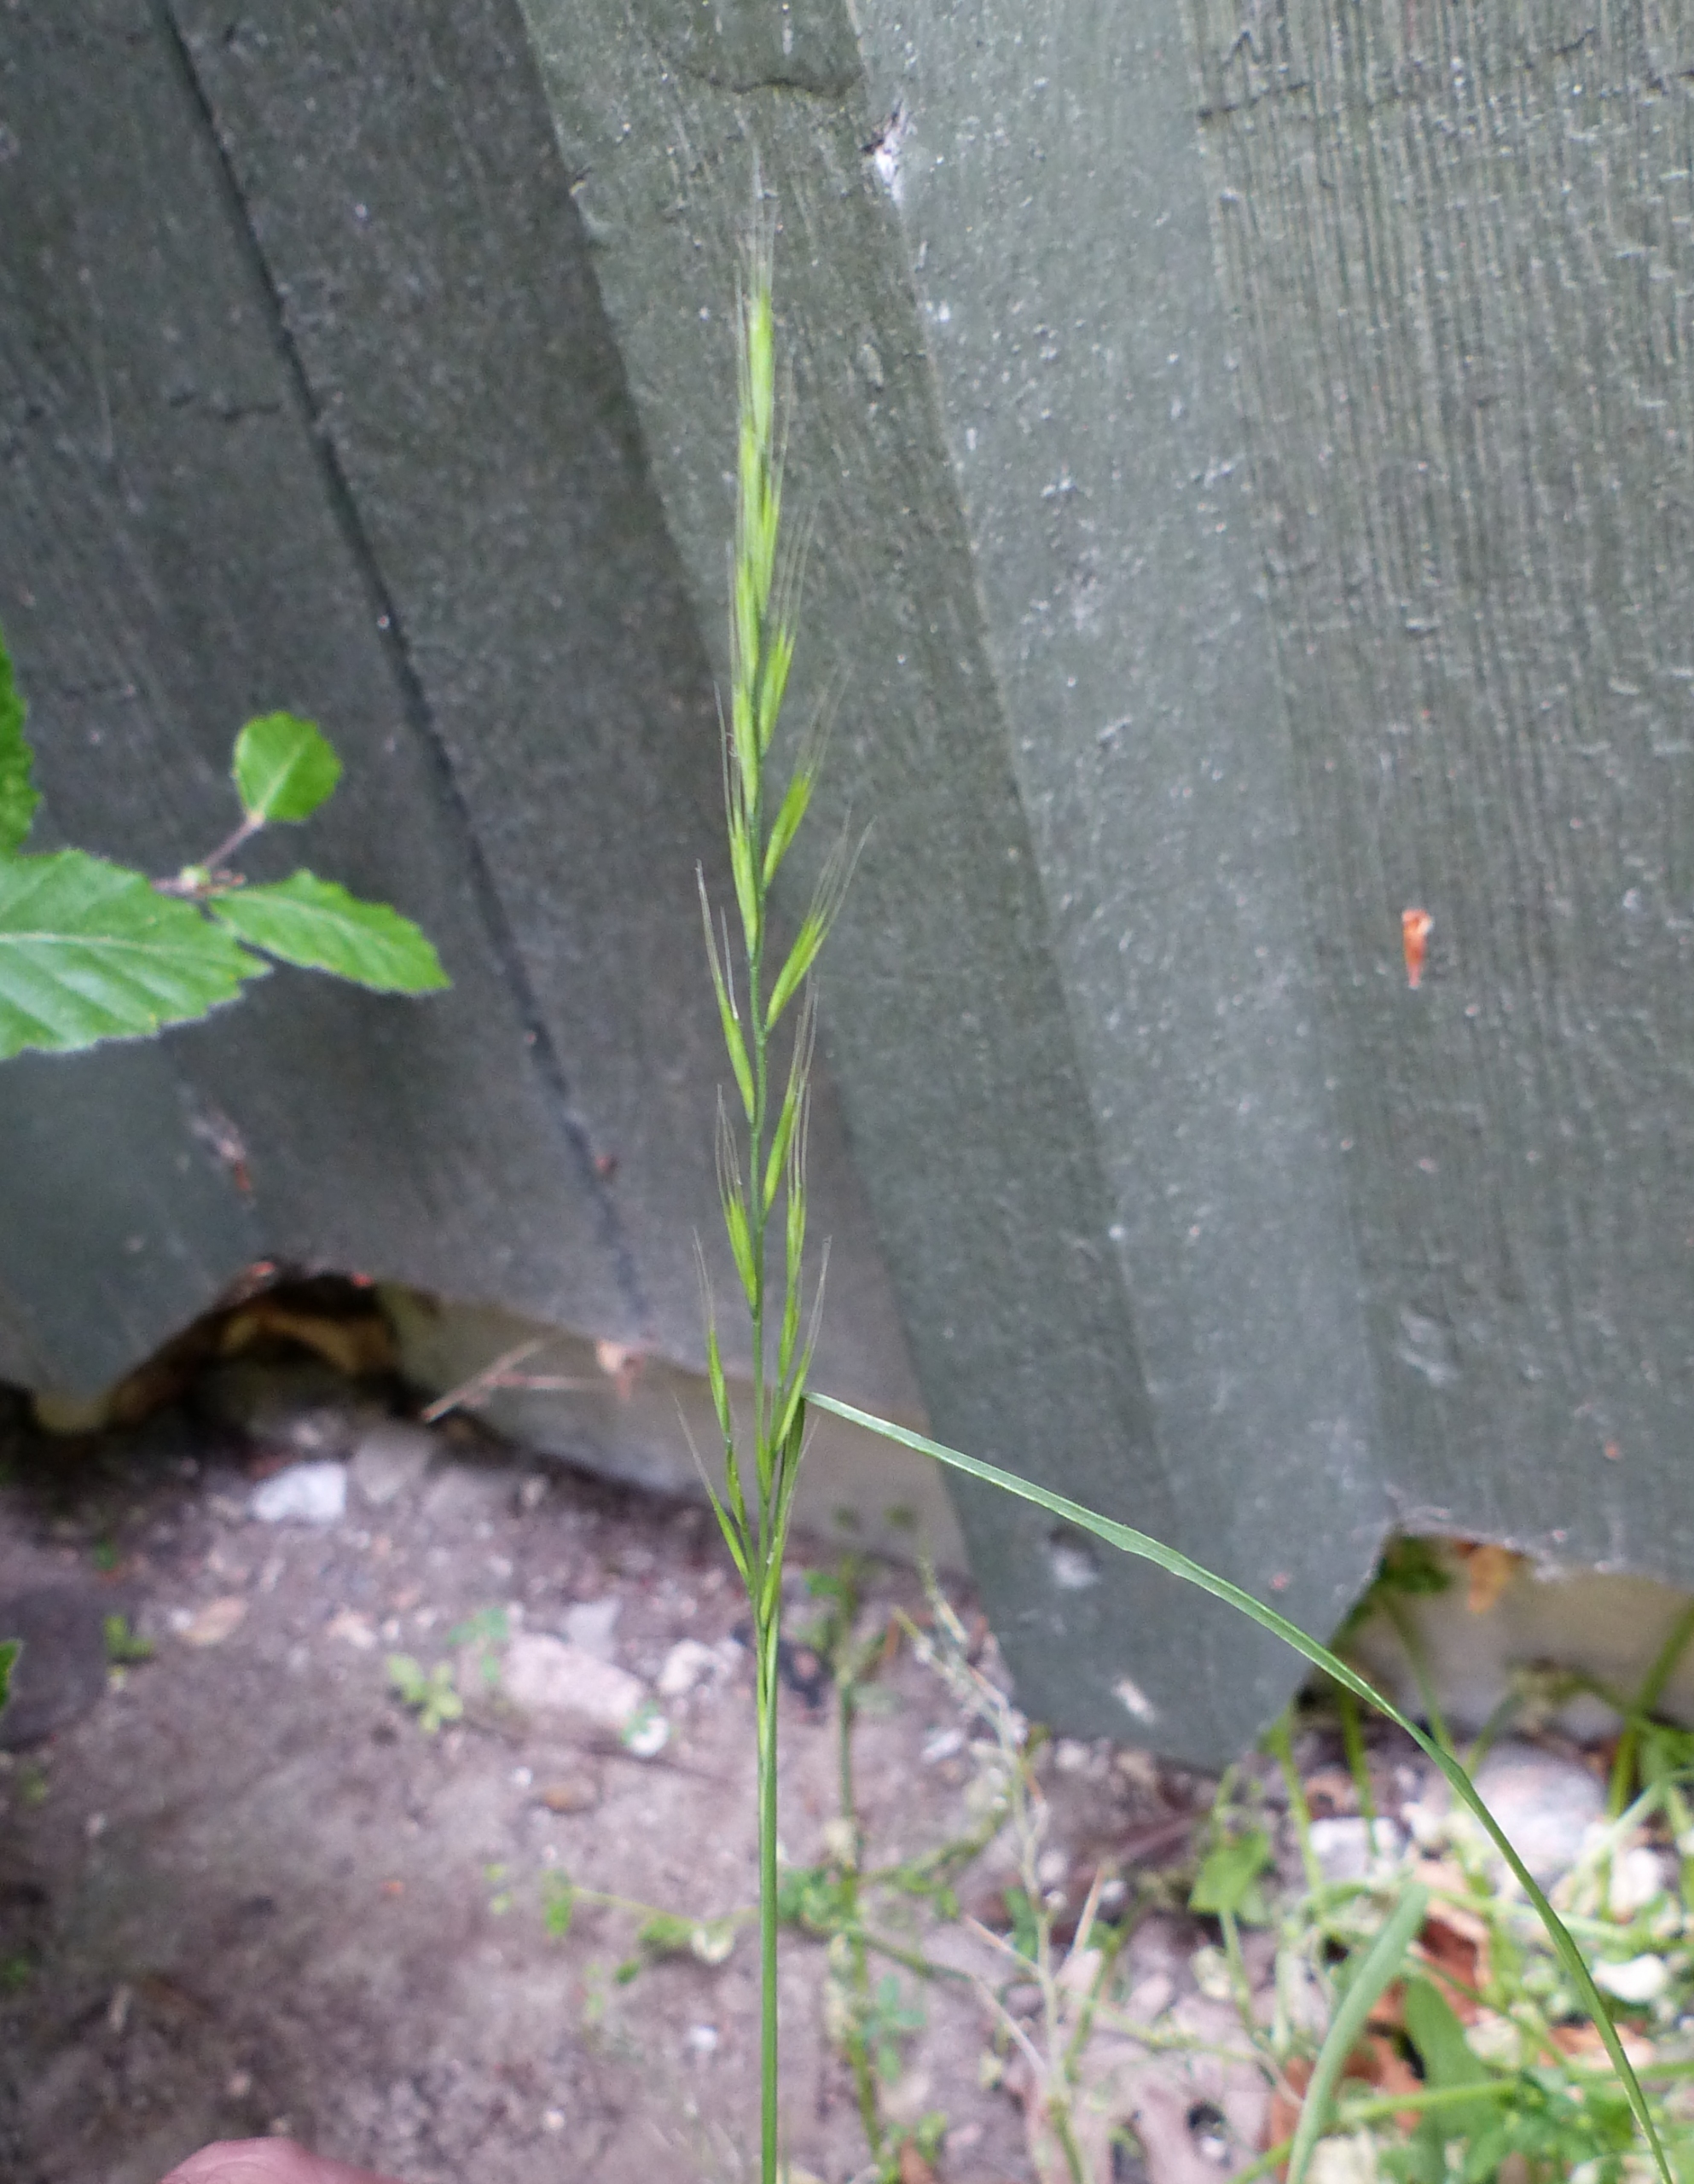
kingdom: Plantae
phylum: Tracheophyta
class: Liliopsida
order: Poales
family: Poaceae
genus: Festuca
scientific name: Festuca myuros
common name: Stor væselhale
